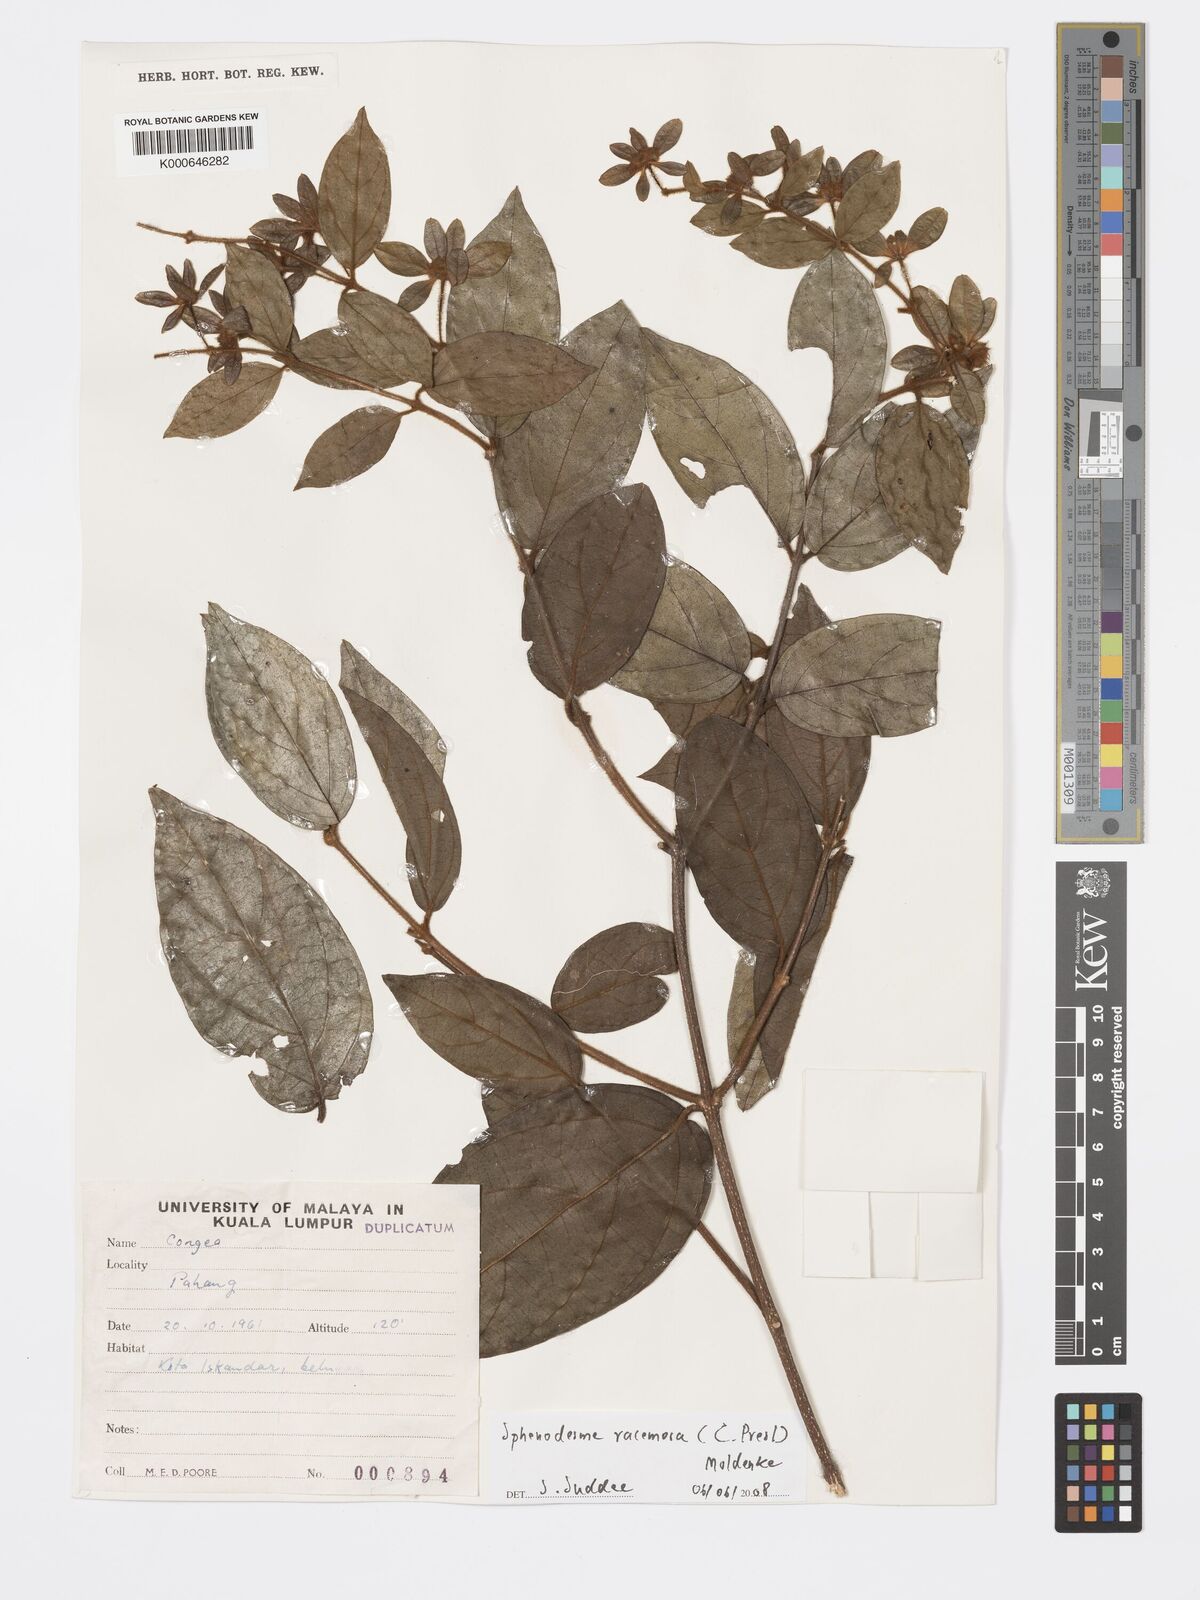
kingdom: Plantae
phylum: Tracheophyta
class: Magnoliopsida
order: Lamiales
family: Lamiaceae
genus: Sphenodesme
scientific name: Sphenodesme racemosa
